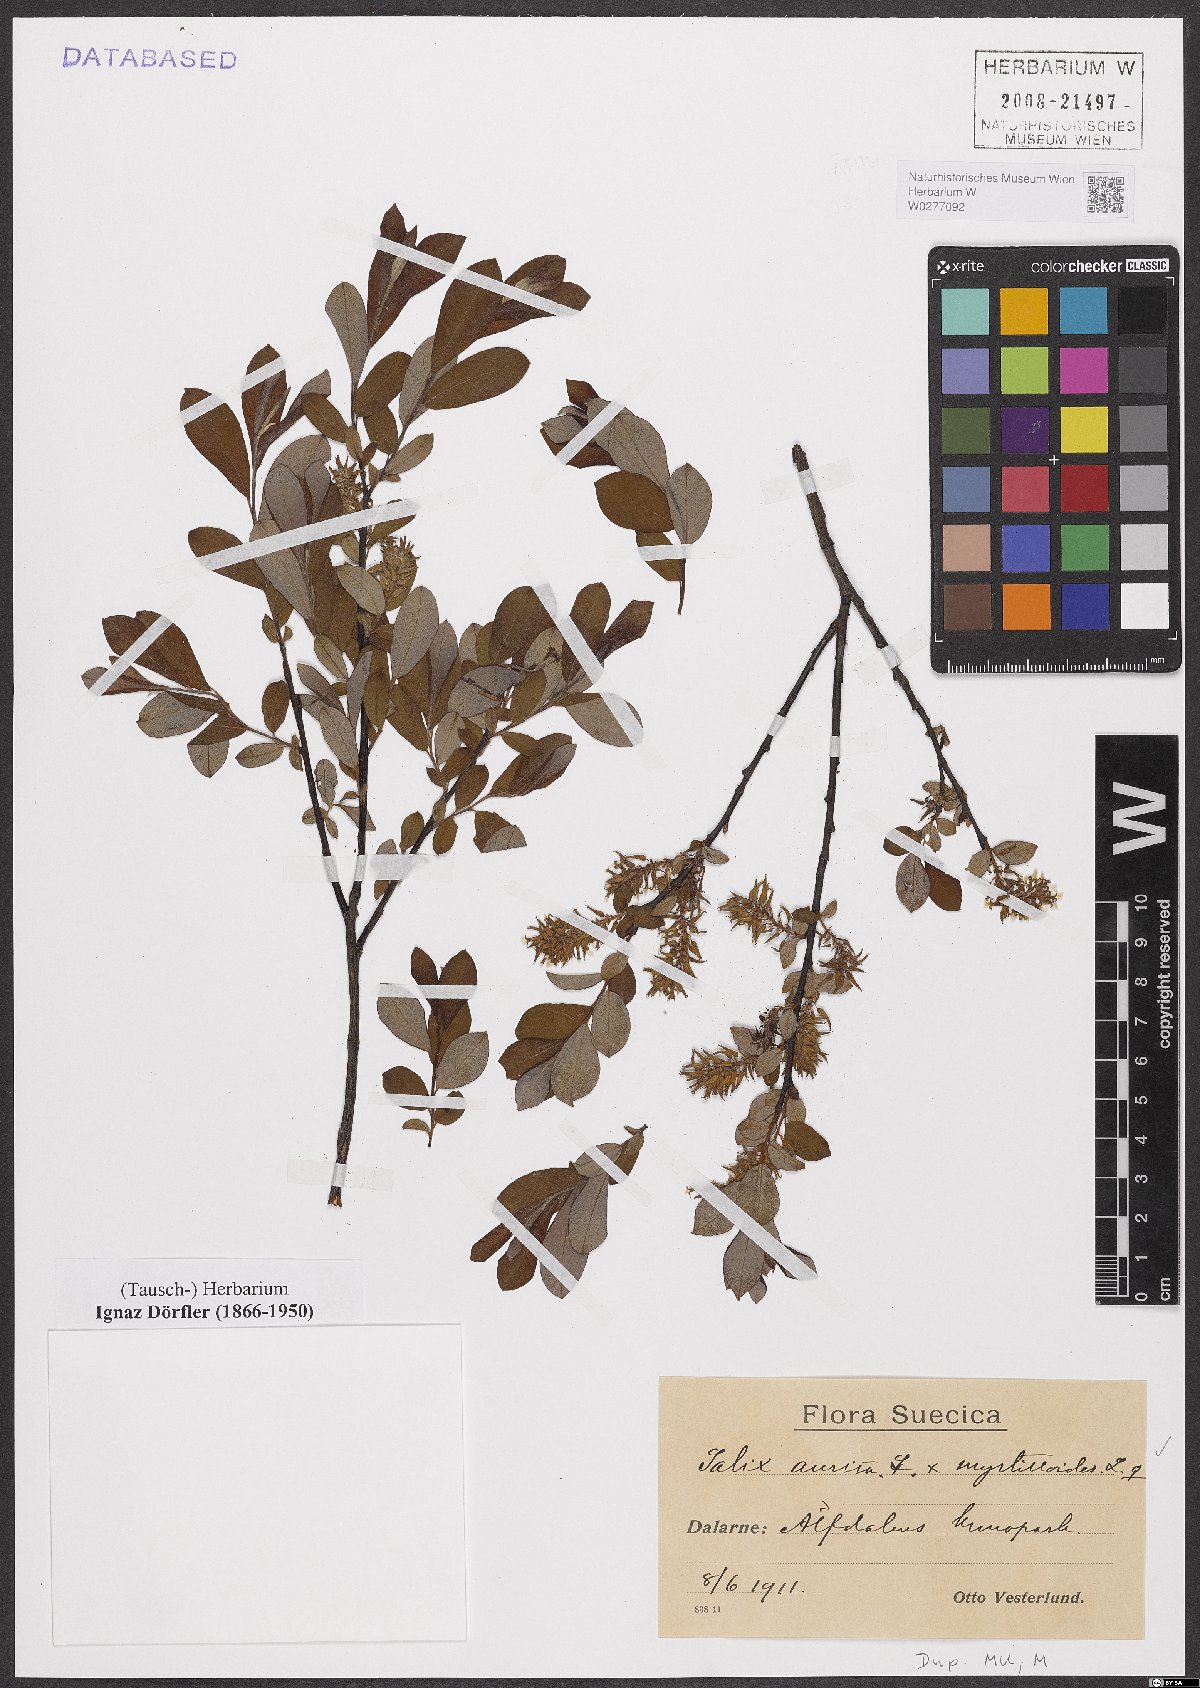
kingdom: Plantae
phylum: Tracheophyta
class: Magnoliopsida
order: Malpighiales
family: Salicaceae
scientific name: Salicaceae
